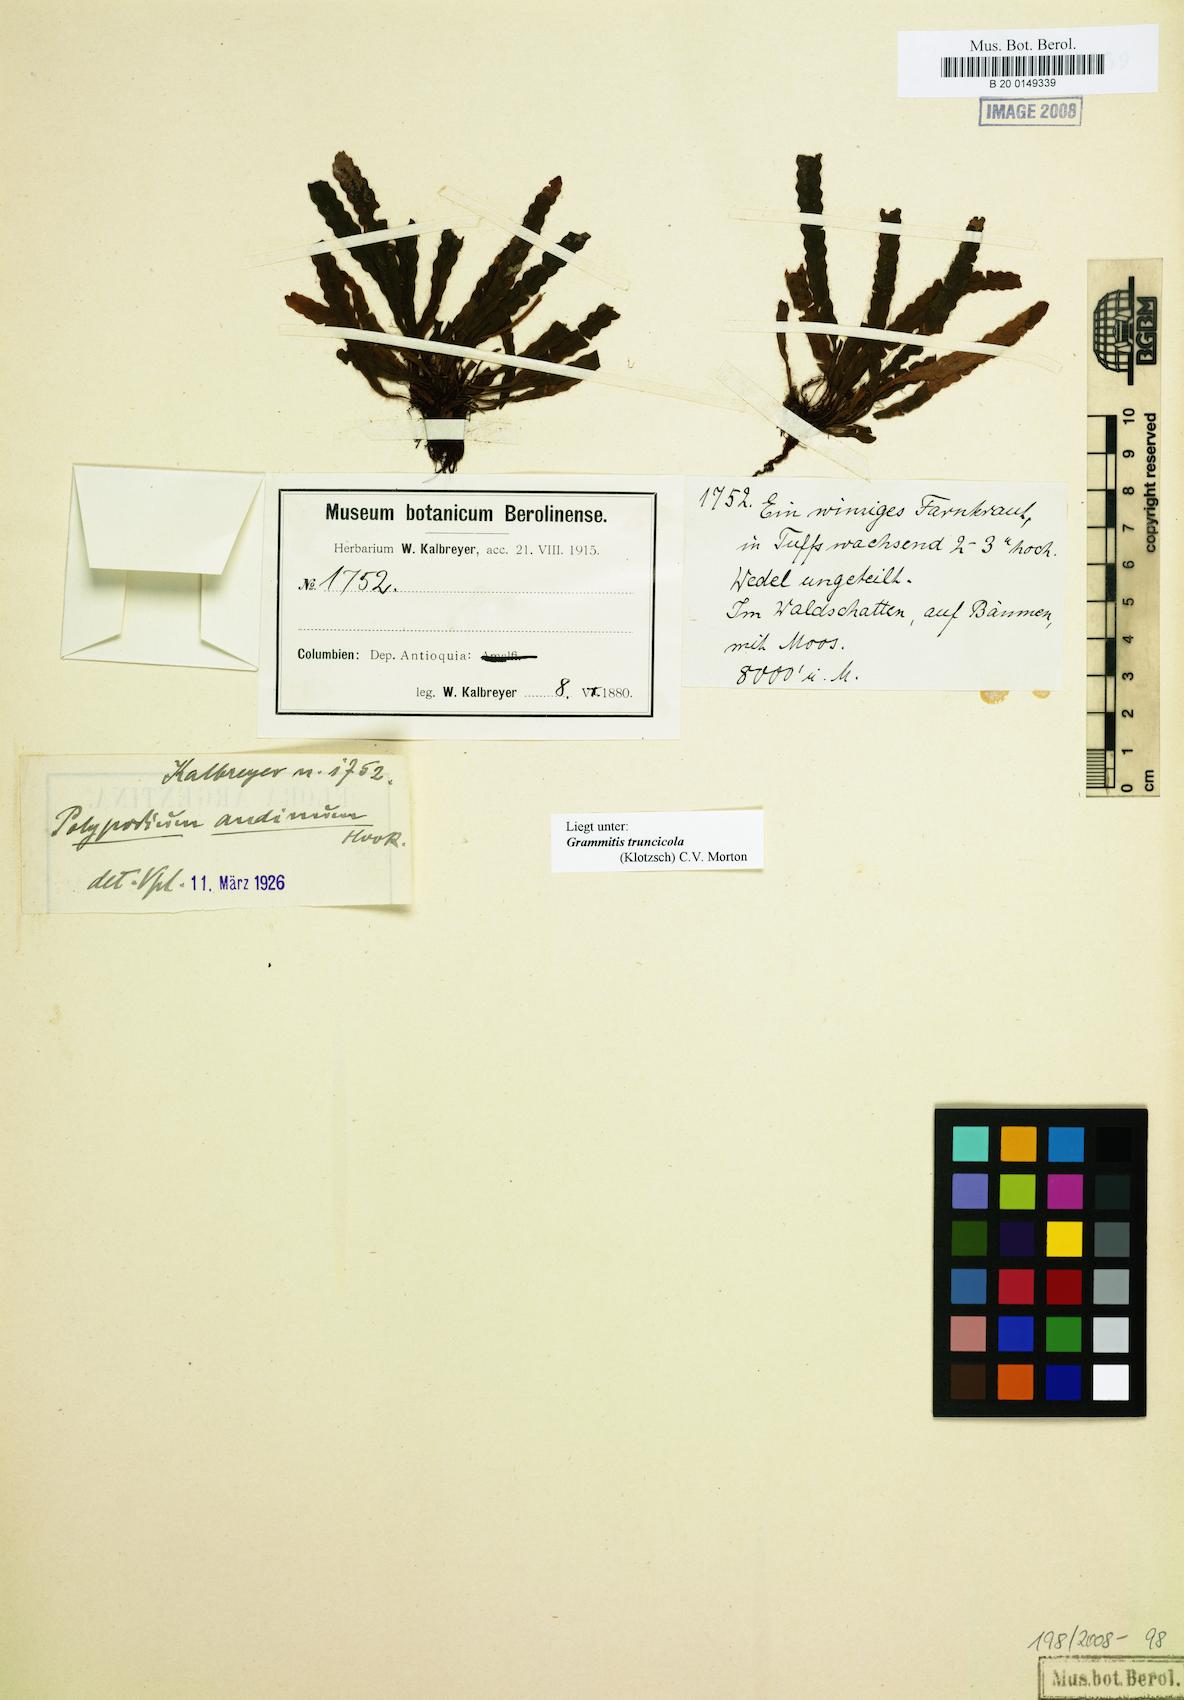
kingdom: Plantae
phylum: Tracheophyta
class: Polypodiopsida
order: Polypodiales
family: Polypodiaceae
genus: Enterosora
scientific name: Enterosora
